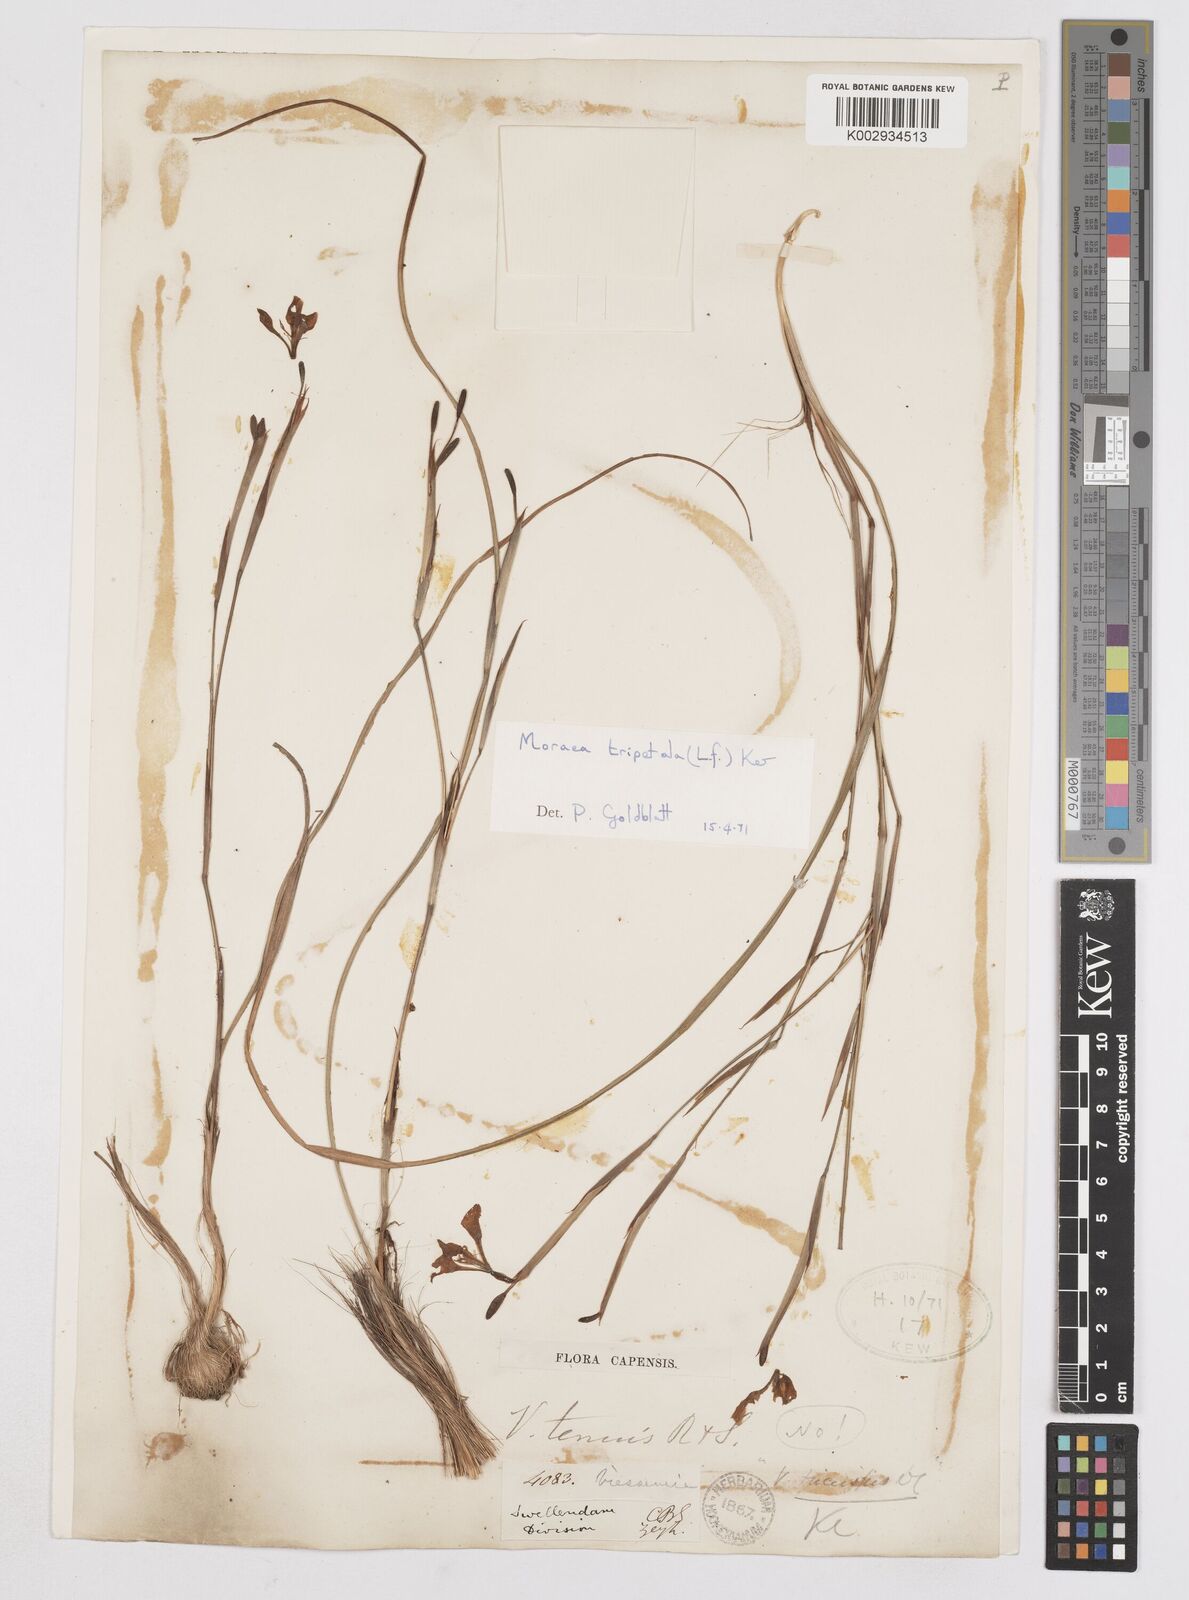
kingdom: Plantae
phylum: Tracheophyta
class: Liliopsida
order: Asparagales
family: Iridaceae
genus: Moraea
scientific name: Moraea tripetala
